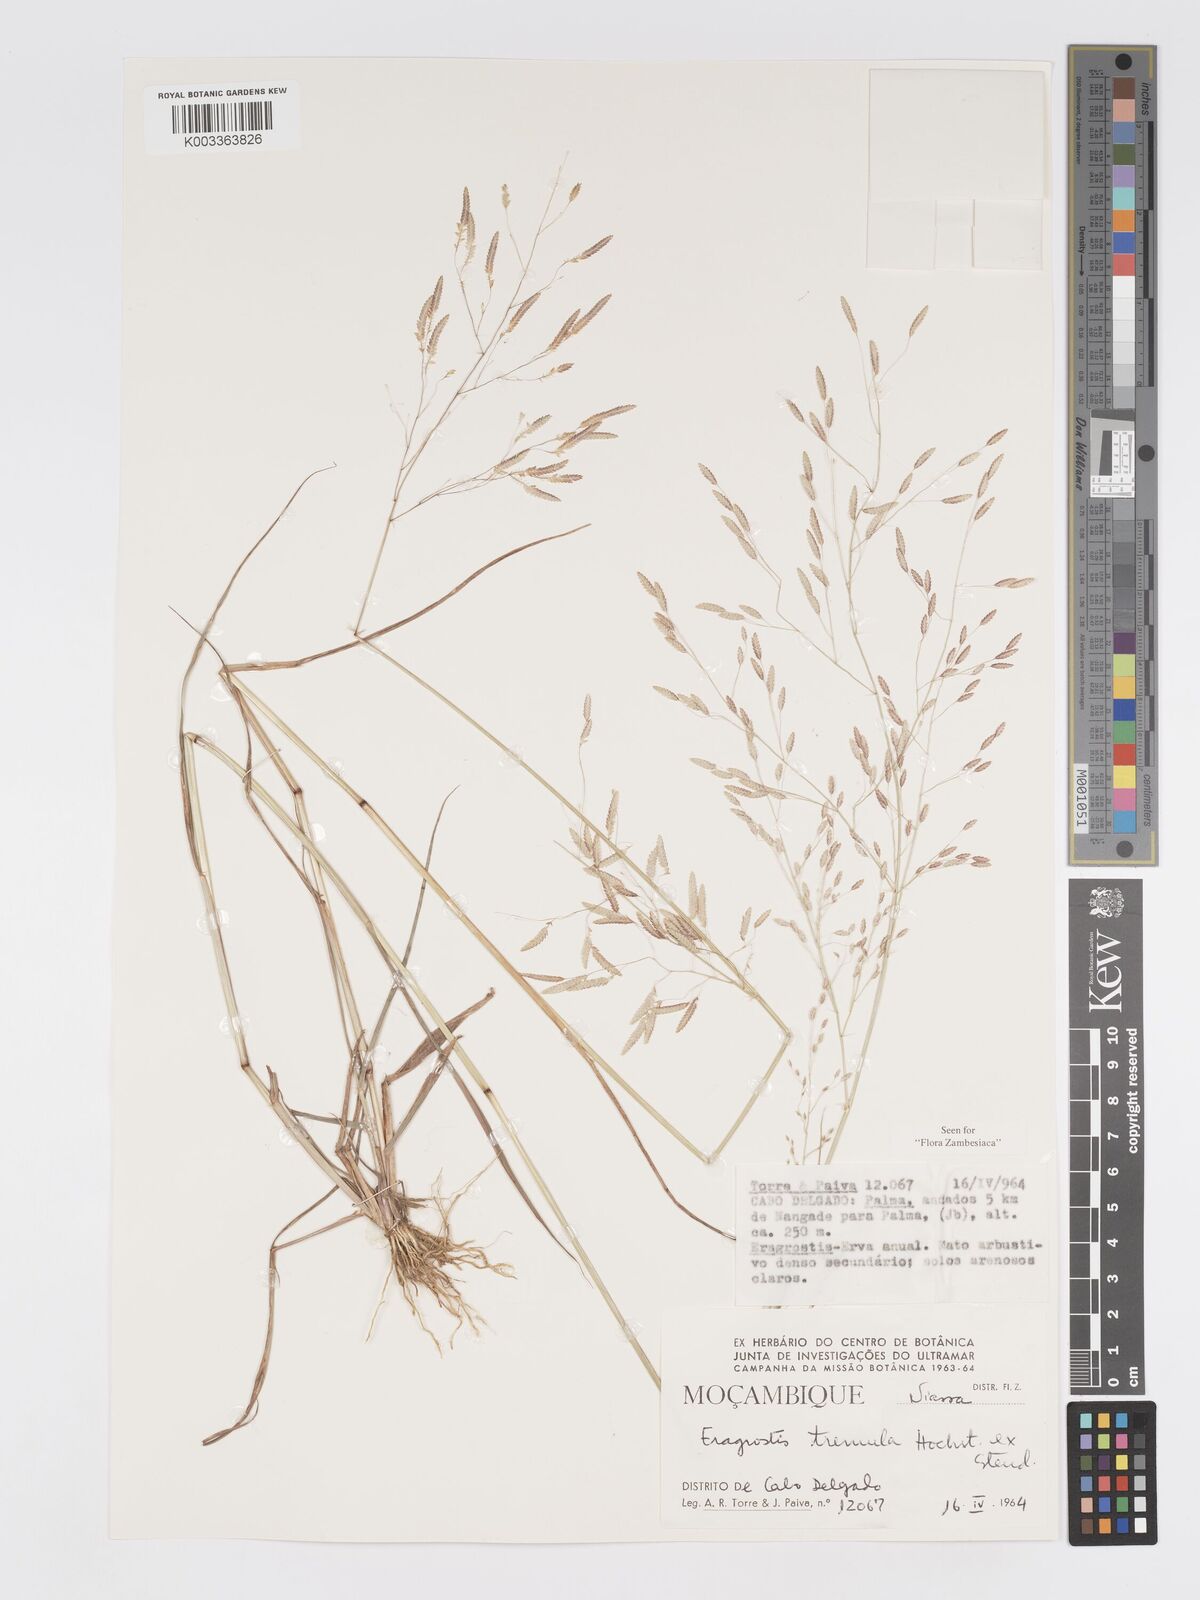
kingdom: Plantae
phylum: Tracheophyta
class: Liliopsida
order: Poales
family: Poaceae
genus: Eragrostis
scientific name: Eragrostis tremula
